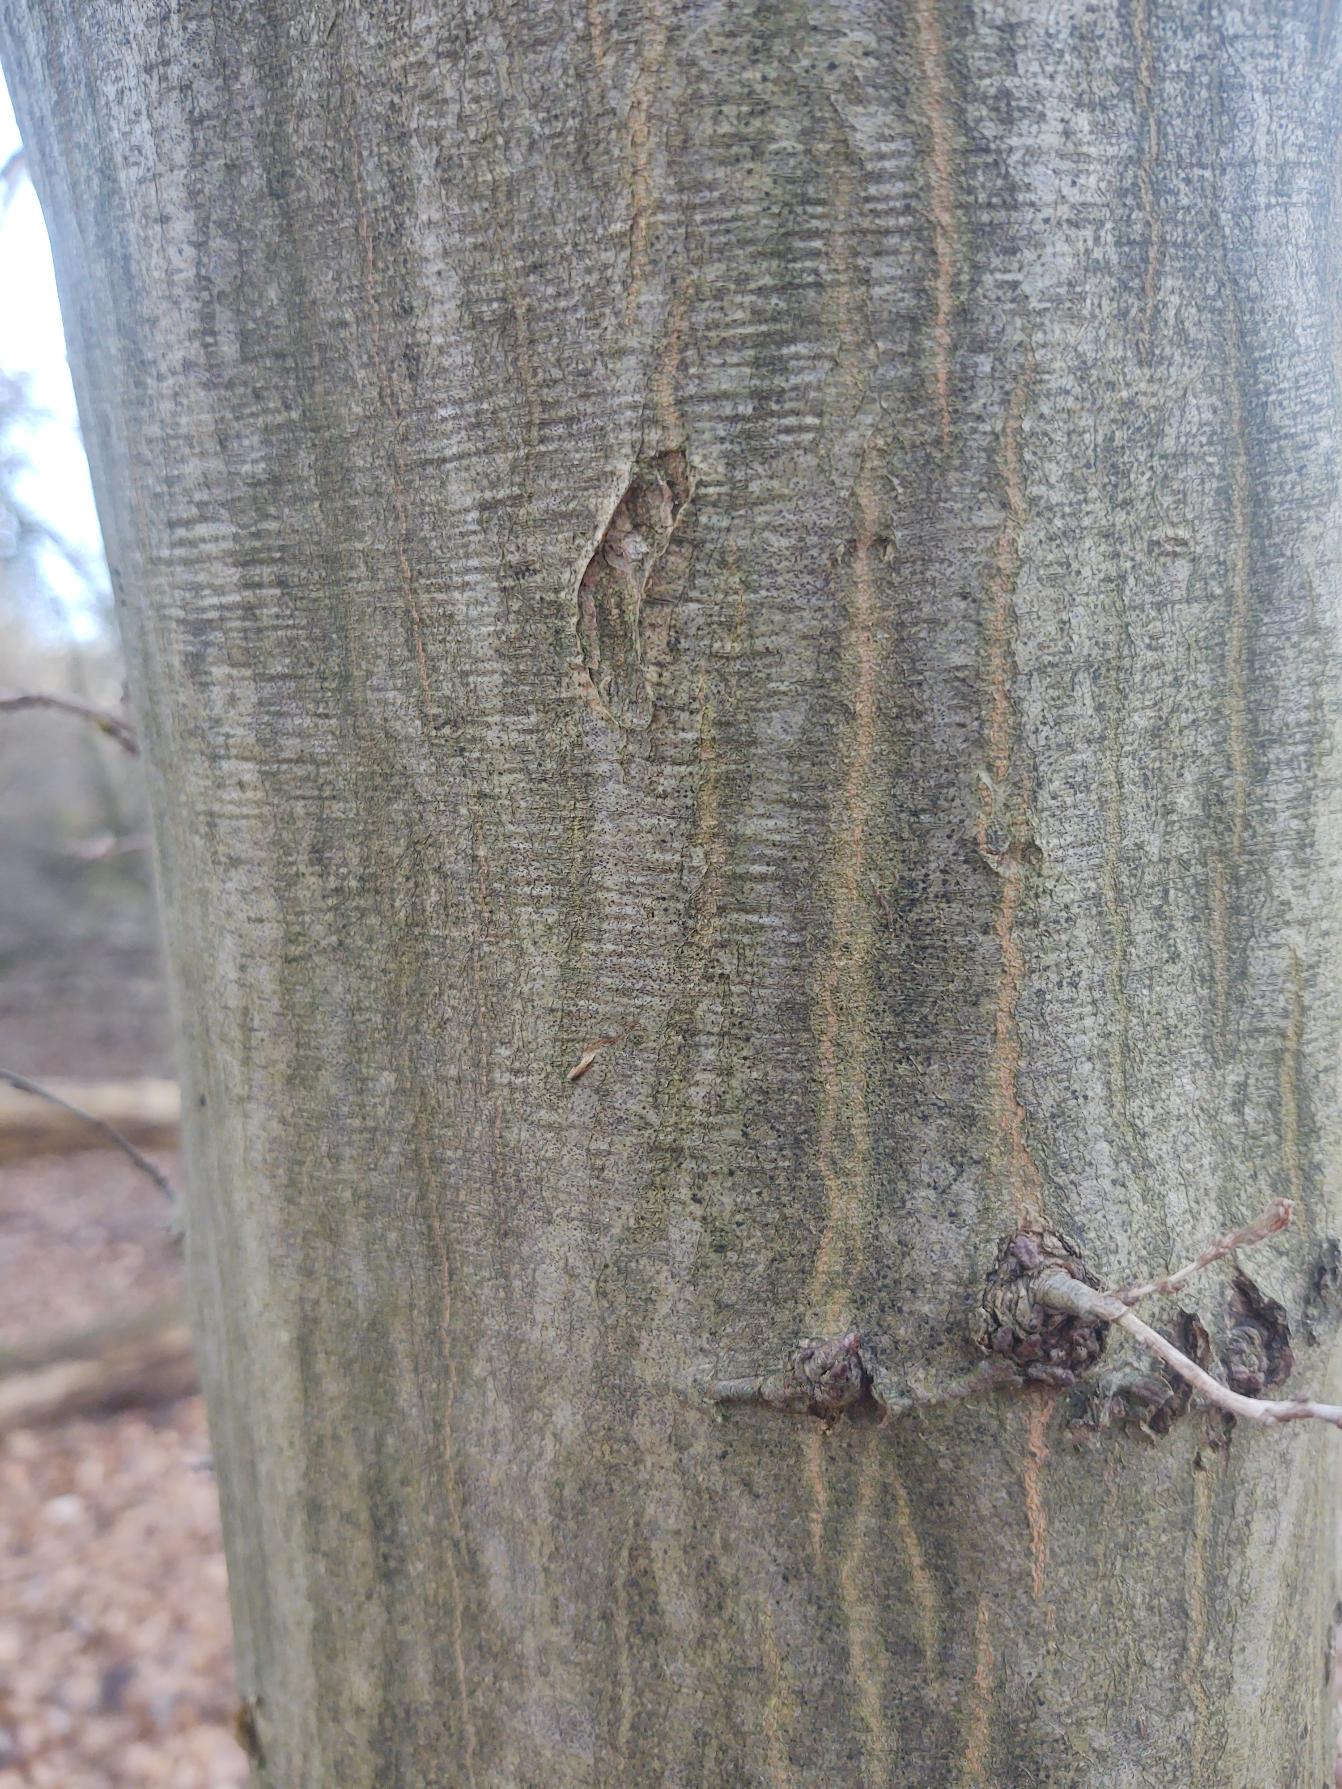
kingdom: Plantae
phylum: Tracheophyta
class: Magnoliopsida
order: Fagales
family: Betulaceae
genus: Carpinus
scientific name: Carpinus betulus
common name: Avnbøg
